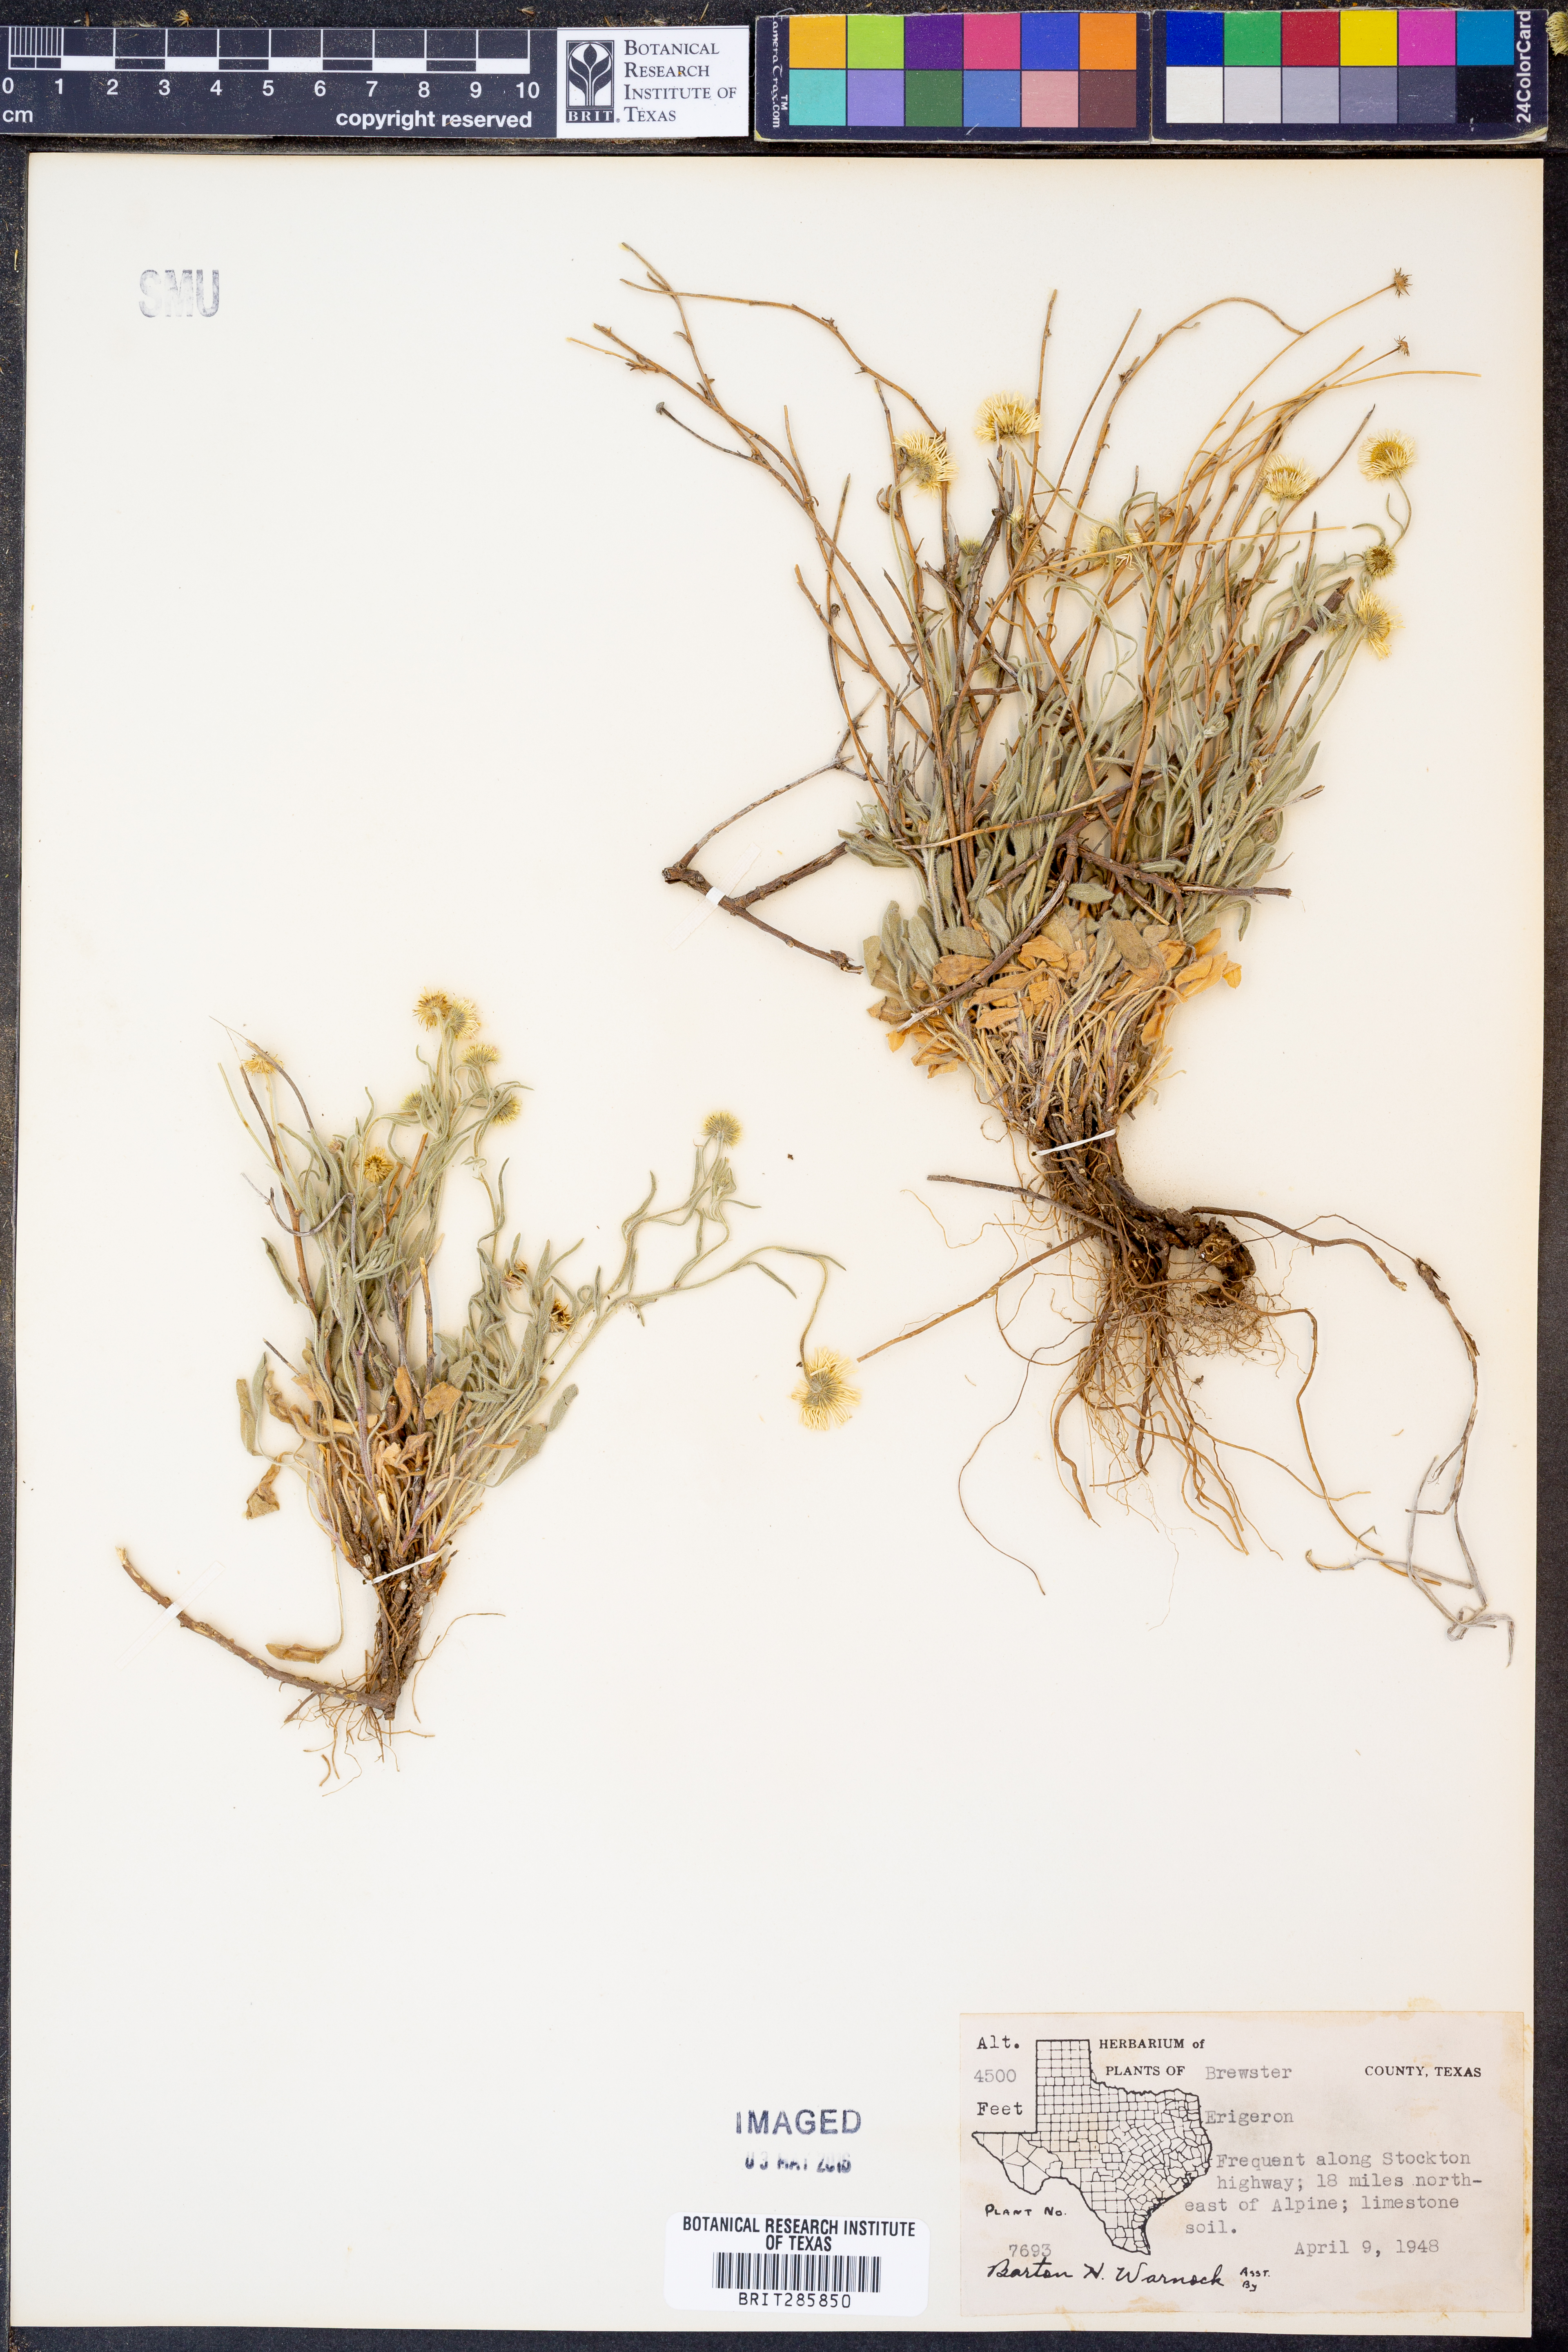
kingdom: Plantae
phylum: Tracheophyta
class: Magnoliopsida
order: Asterales
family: Asteraceae
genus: Erigeron
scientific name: Erigeron
